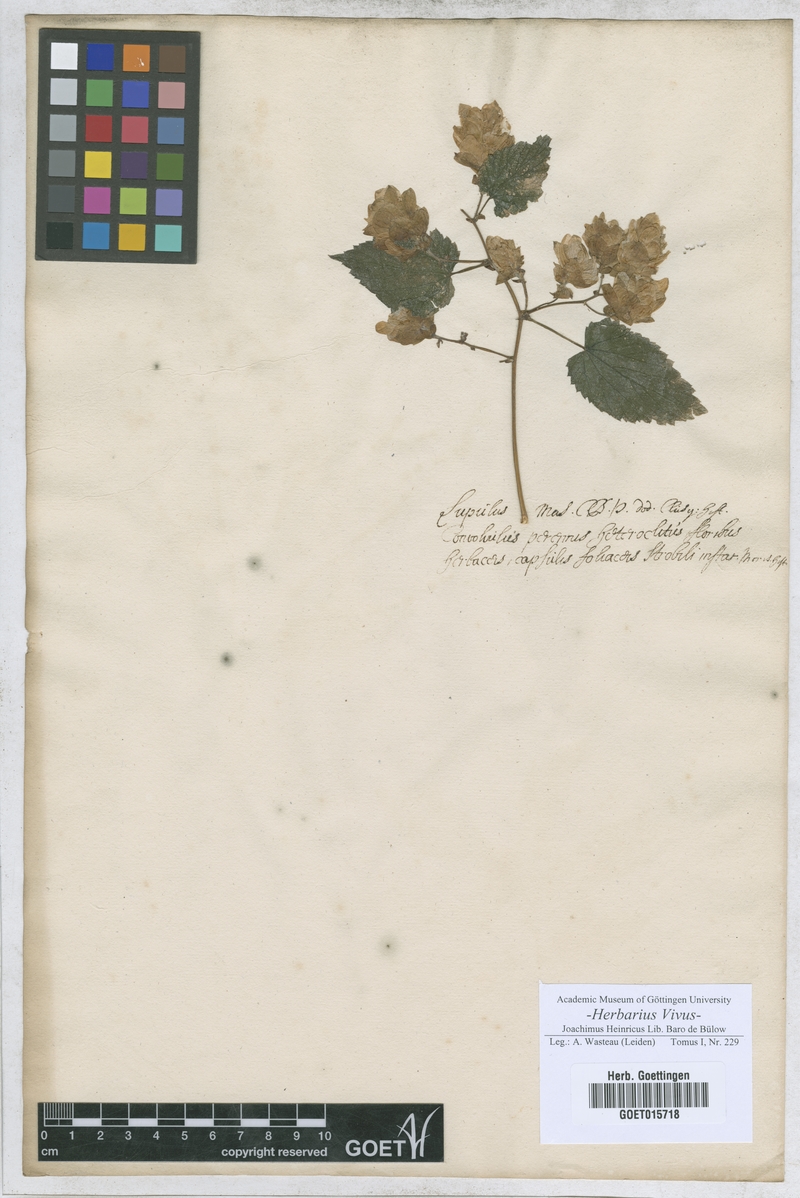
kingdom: Plantae
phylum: Tracheophyta
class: Magnoliopsida
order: Rosales
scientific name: Rosales
